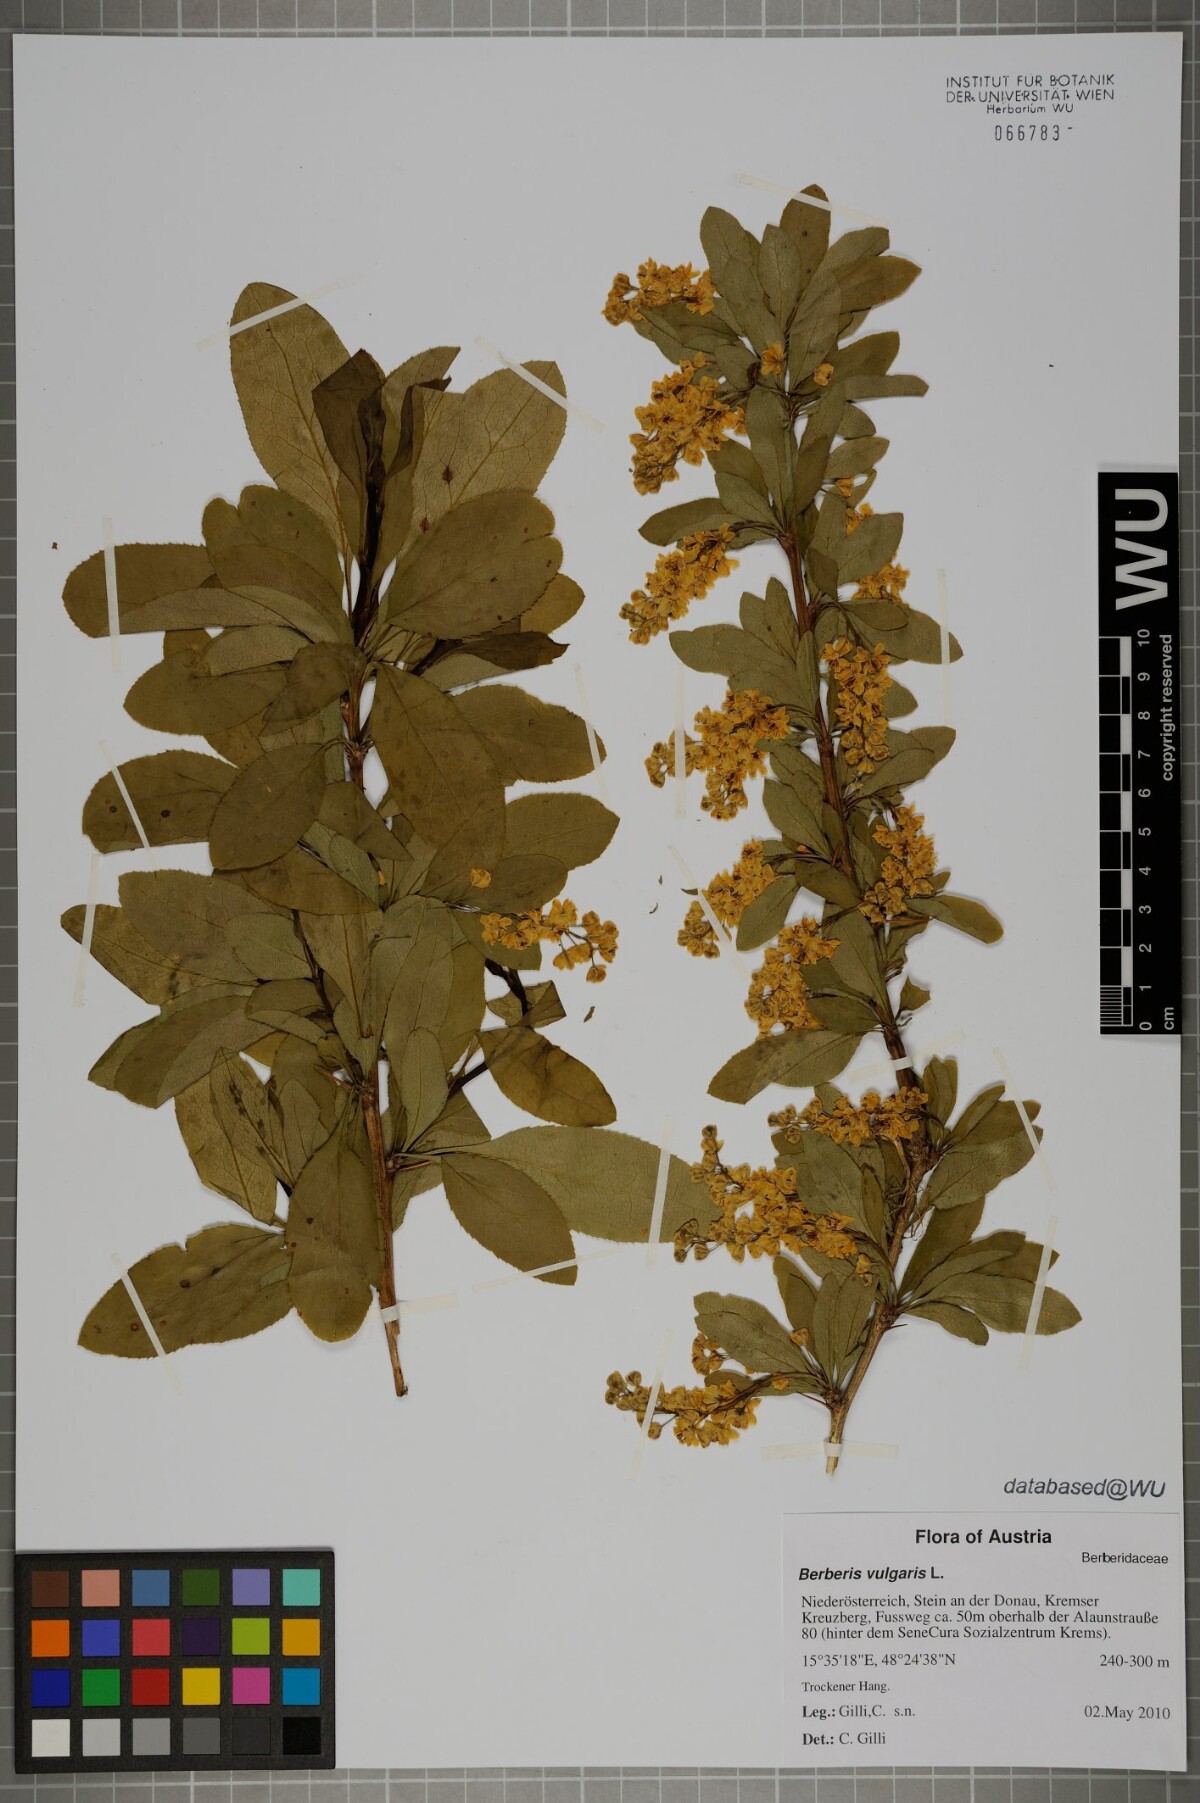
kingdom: Plantae
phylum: Tracheophyta
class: Magnoliopsida
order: Ranunculales
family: Berberidaceae
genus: Berberis
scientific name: Berberis vulgaris
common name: Barberry
